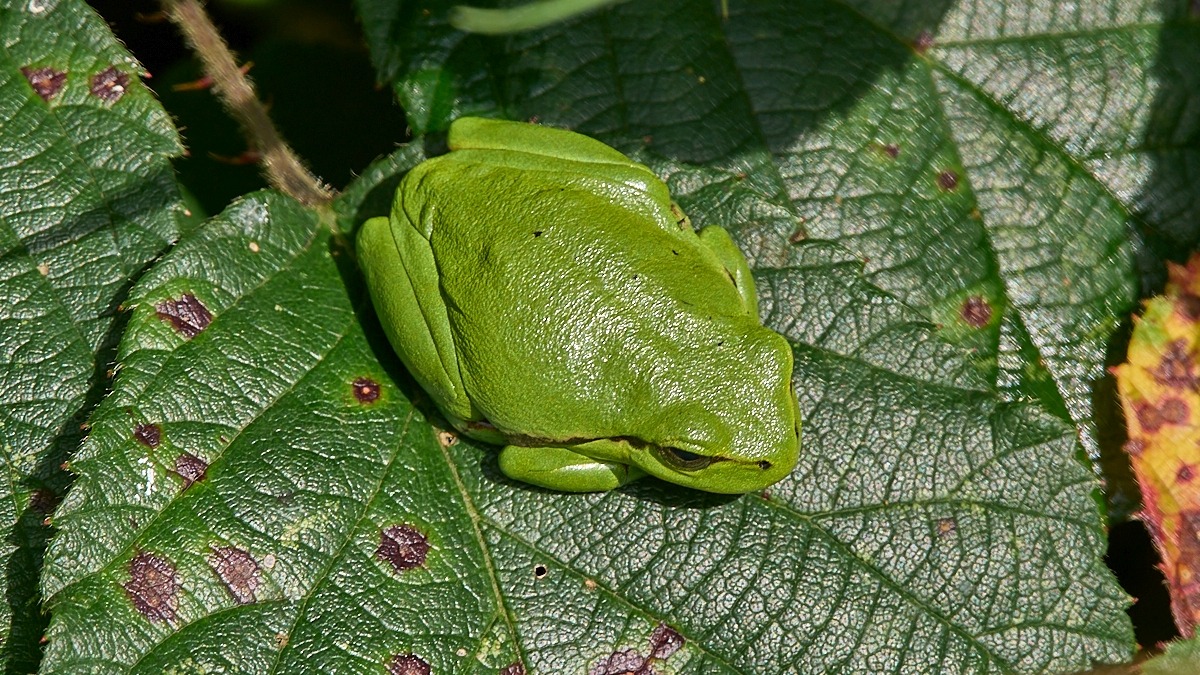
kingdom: Animalia
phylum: Chordata
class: Amphibia
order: Anura
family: Hylidae
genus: Hyla
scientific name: Hyla arborea
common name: Løvfrø
